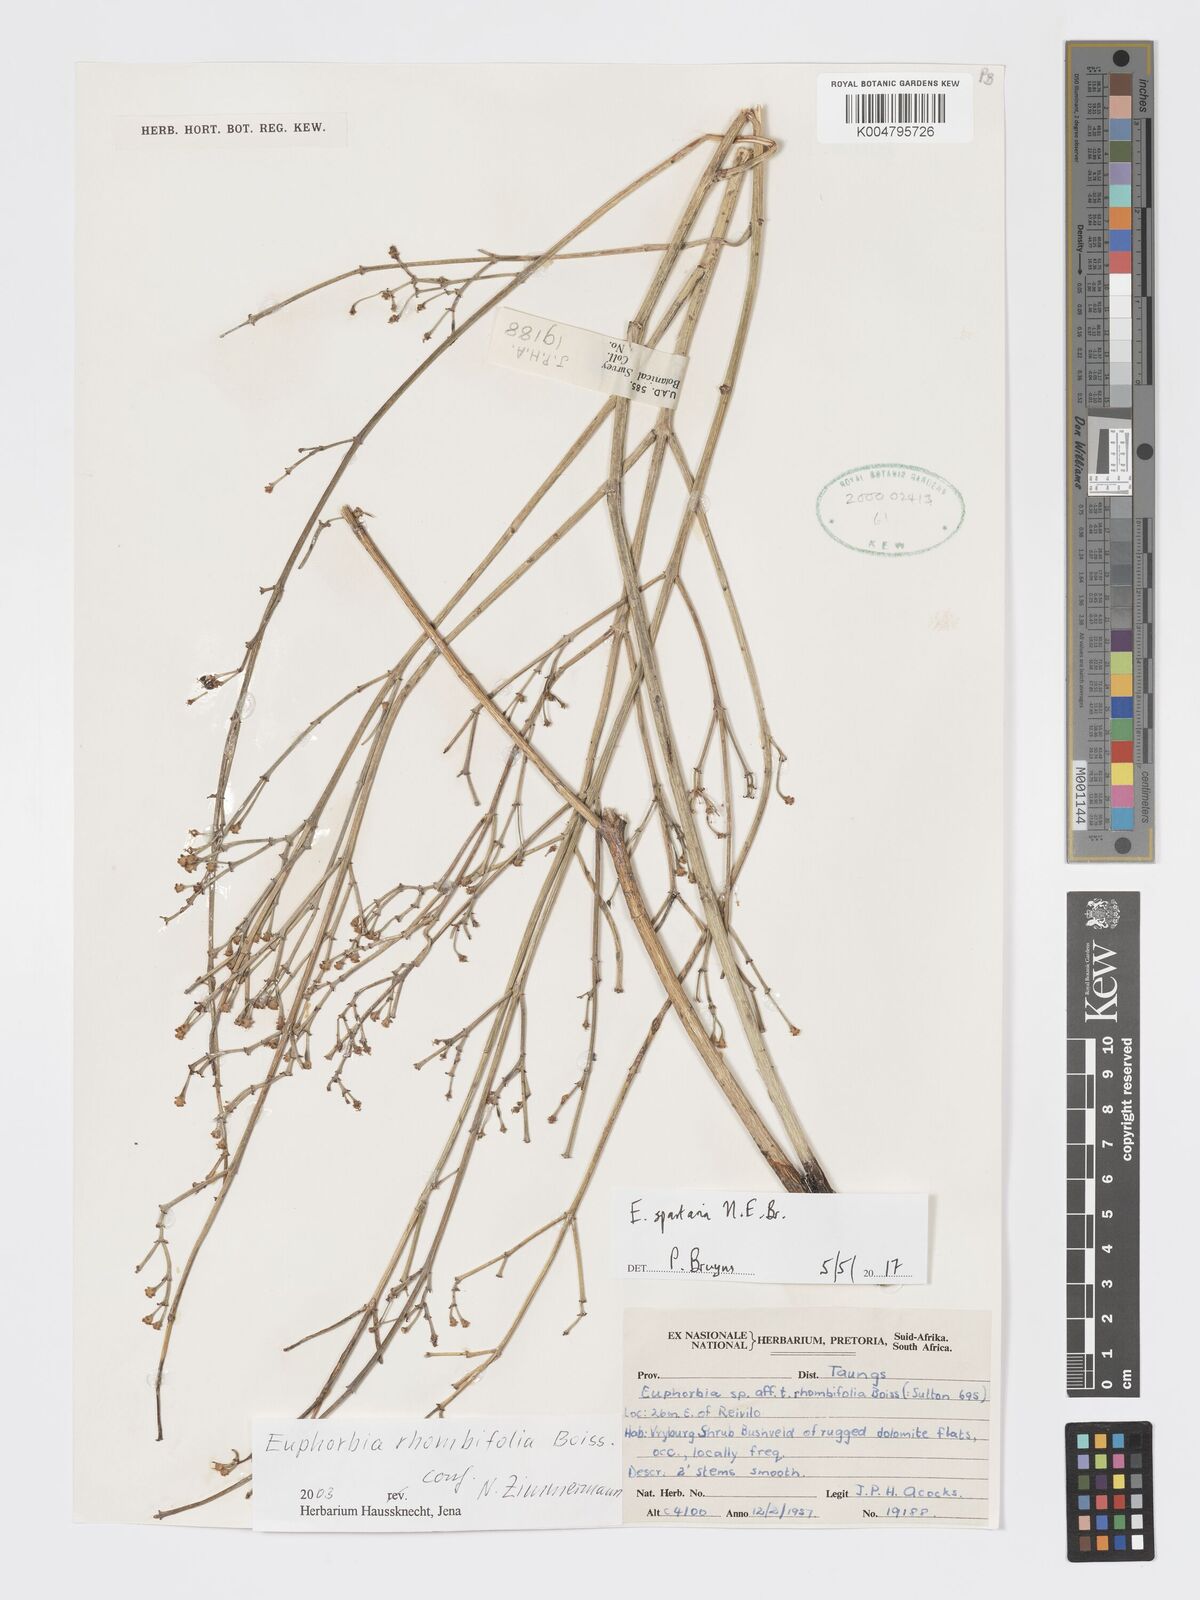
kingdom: Plantae
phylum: Tracheophyta
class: Magnoliopsida
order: Malpighiales
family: Euphorbiaceae
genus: Euphorbia
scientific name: Euphorbia spartaria
